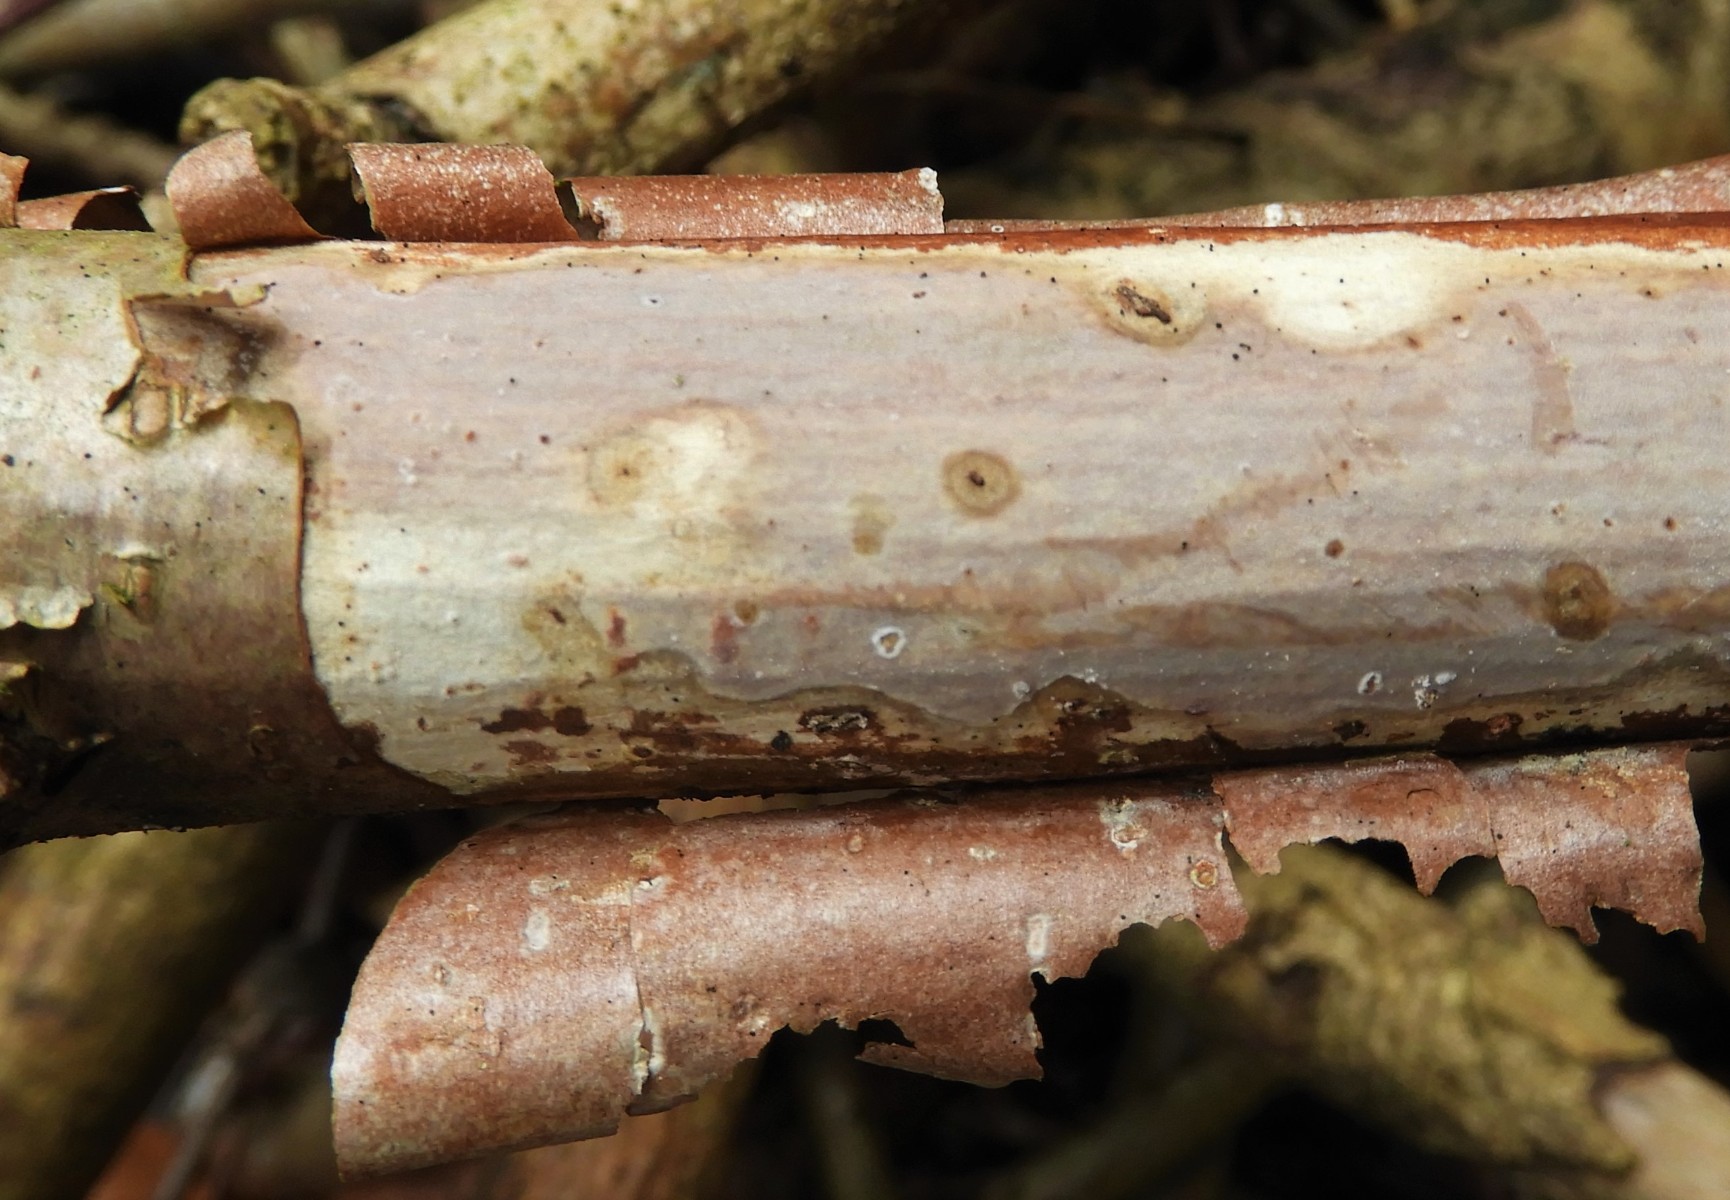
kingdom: Fungi
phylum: Basidiomycota
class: Agaricomycetes
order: Corticiales
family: Vuilleminiaceae
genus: Vuilleminia
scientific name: Vuilleminia coryli
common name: hassel-barksprænger
